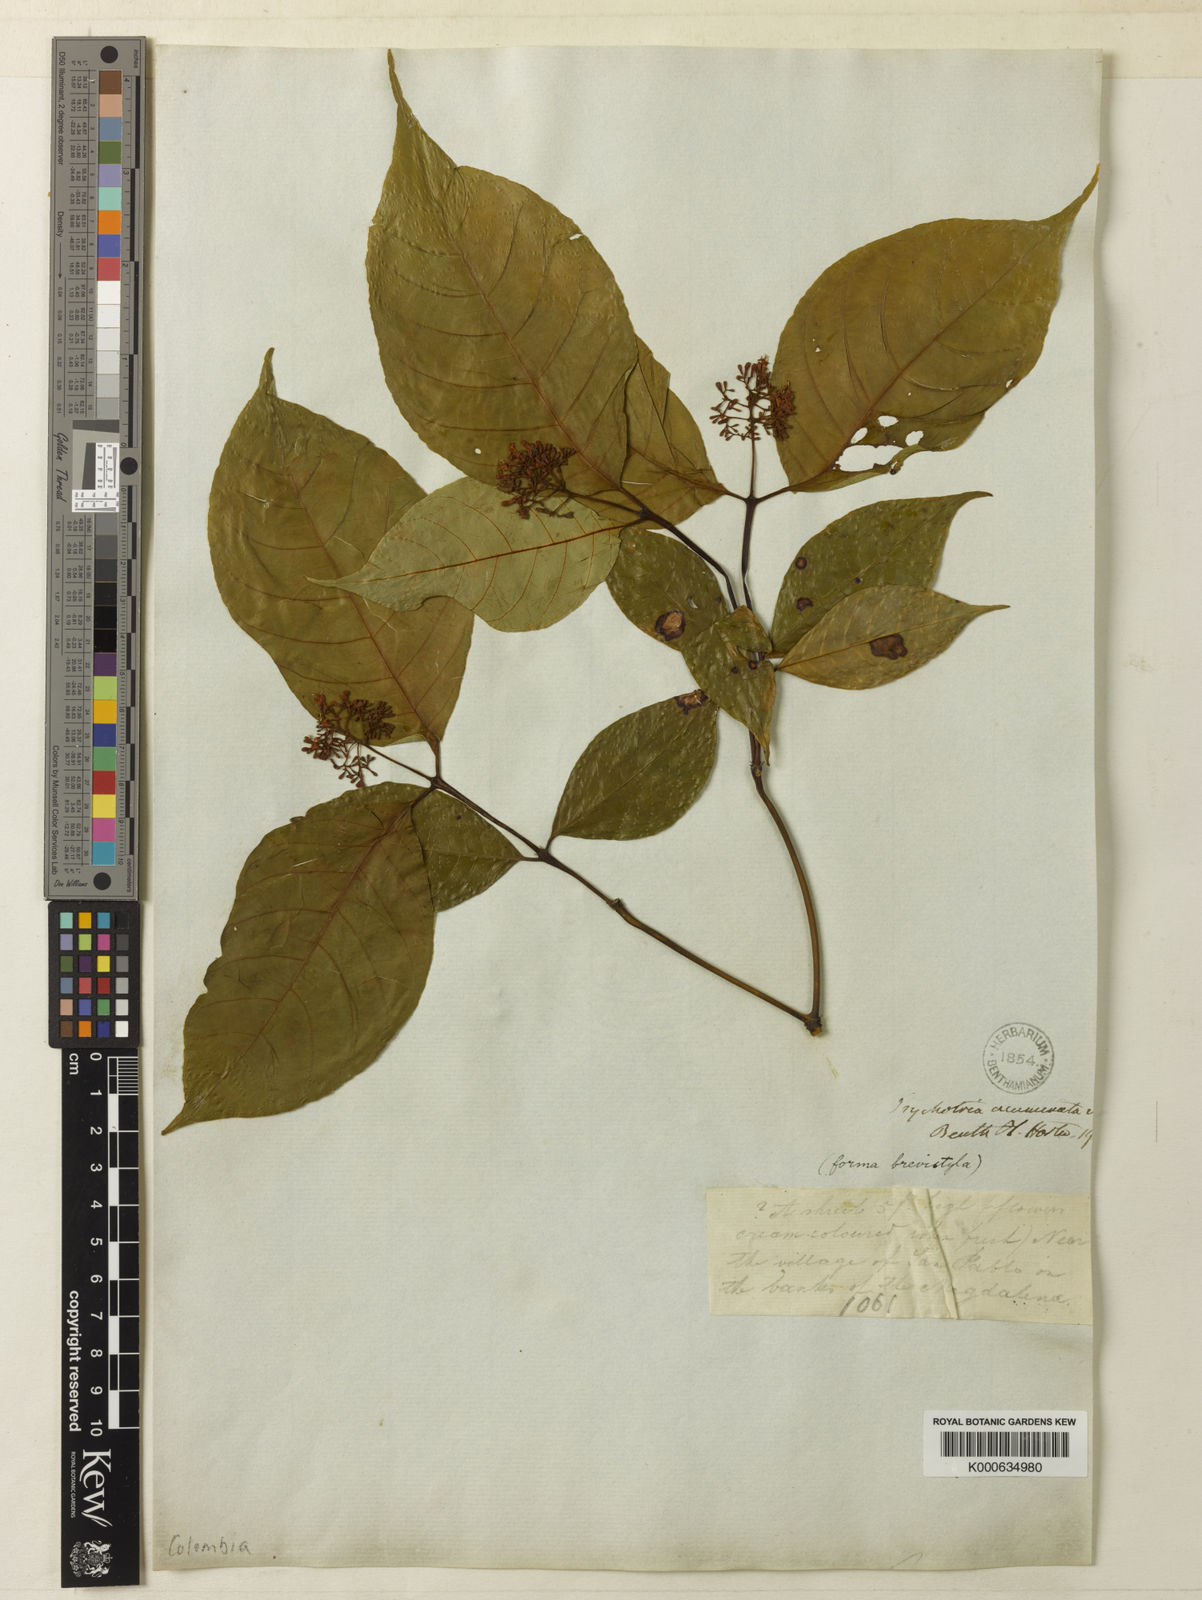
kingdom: Plantae
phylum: Tracheophyta
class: Magnoliopsida
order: Gentianales
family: Rubiaceae
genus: Palicourea
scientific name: Palicourea acuminata
